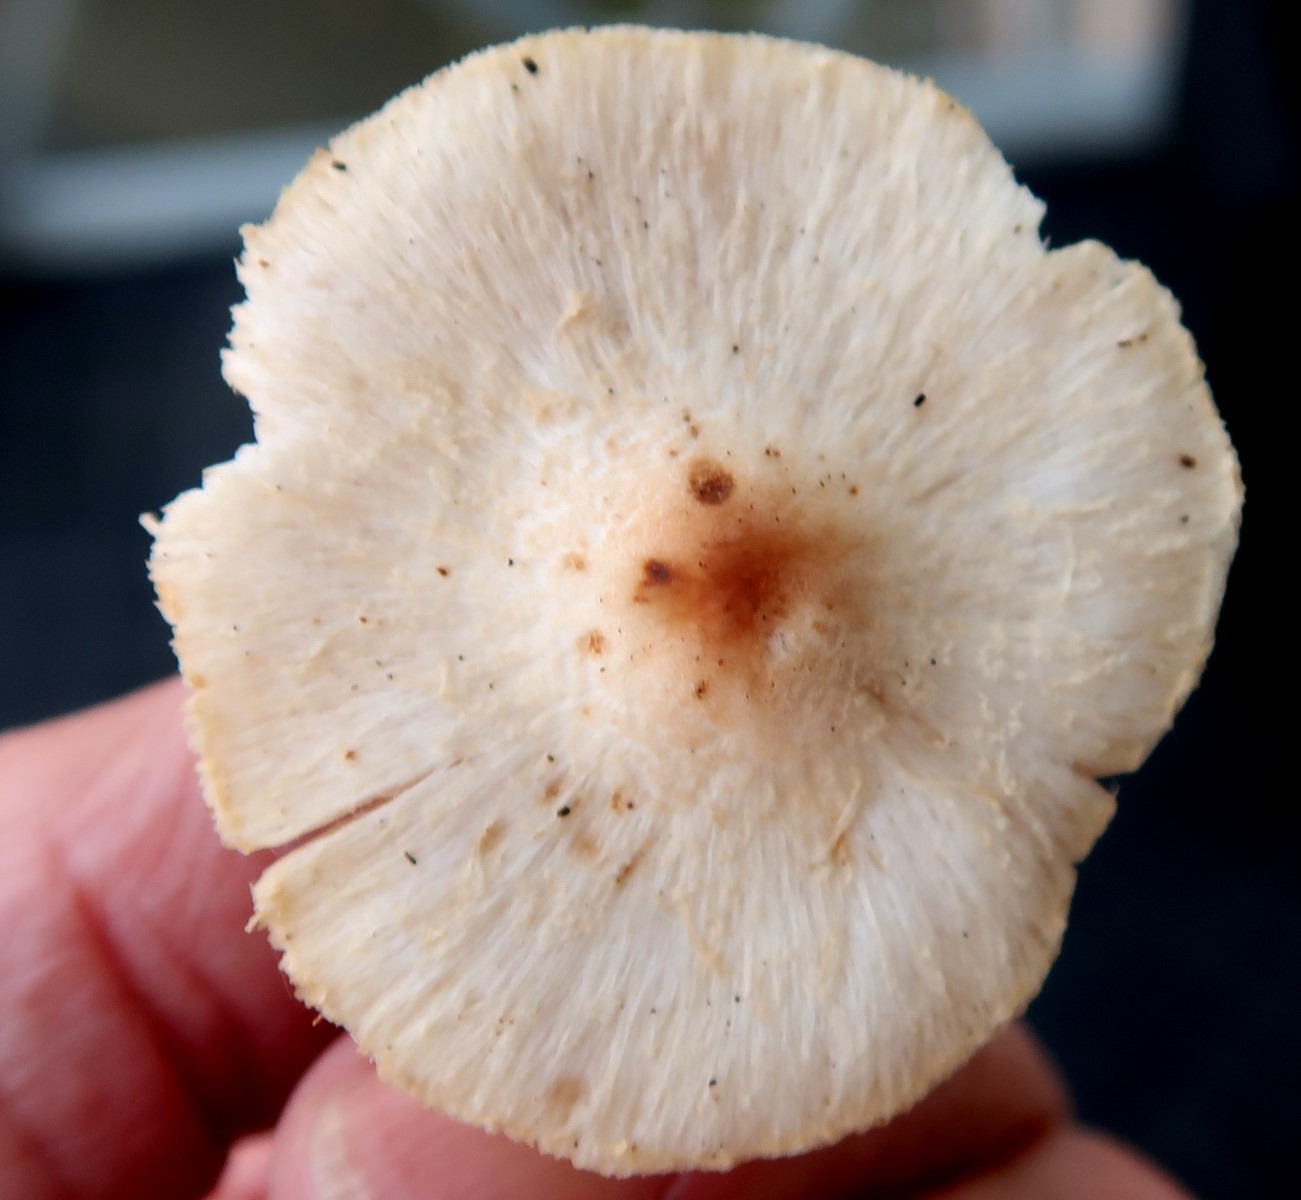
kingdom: Fungi
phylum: Basidiomycota
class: Agaricomycetes
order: Agaricales
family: Agaricaceae
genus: Lepiota
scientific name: Lepiota
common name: parasolhat
